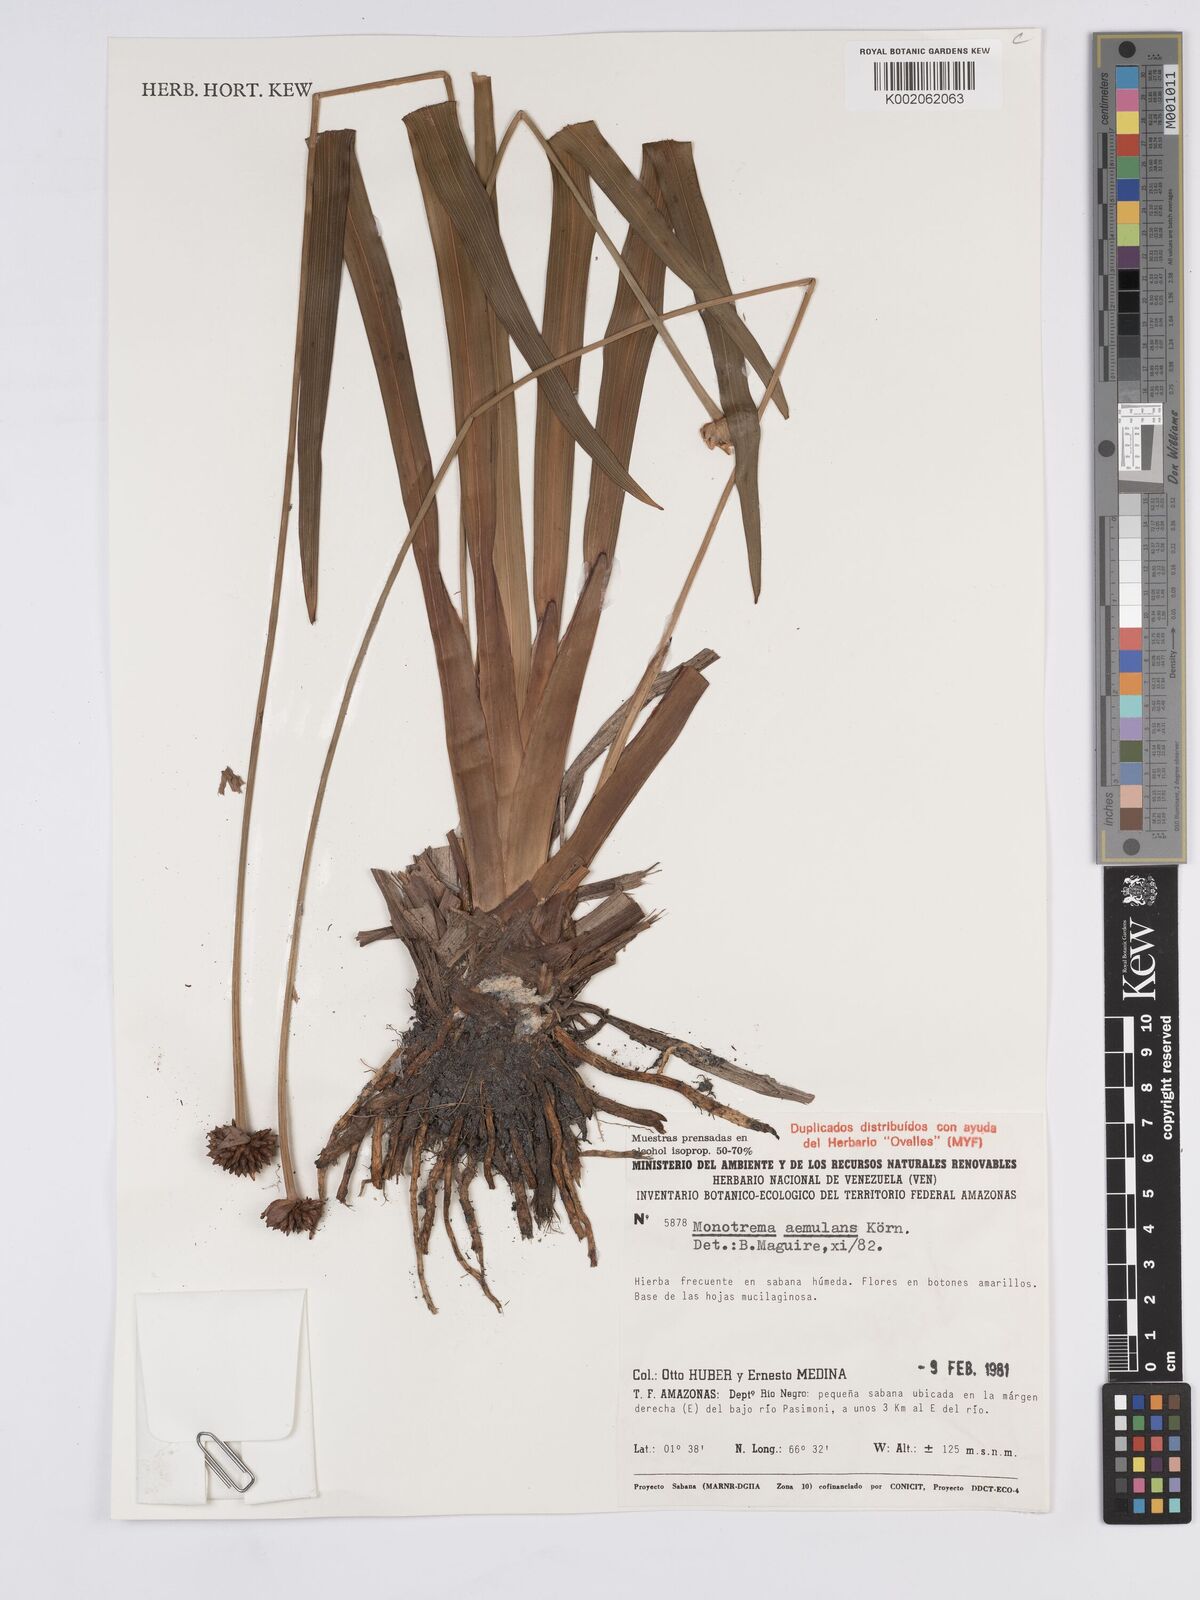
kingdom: Plantae
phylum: Tracheophyta
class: Liliopsida
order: Poales
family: Rapateaceae
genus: Monotrema
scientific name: Monotrema aemulans
